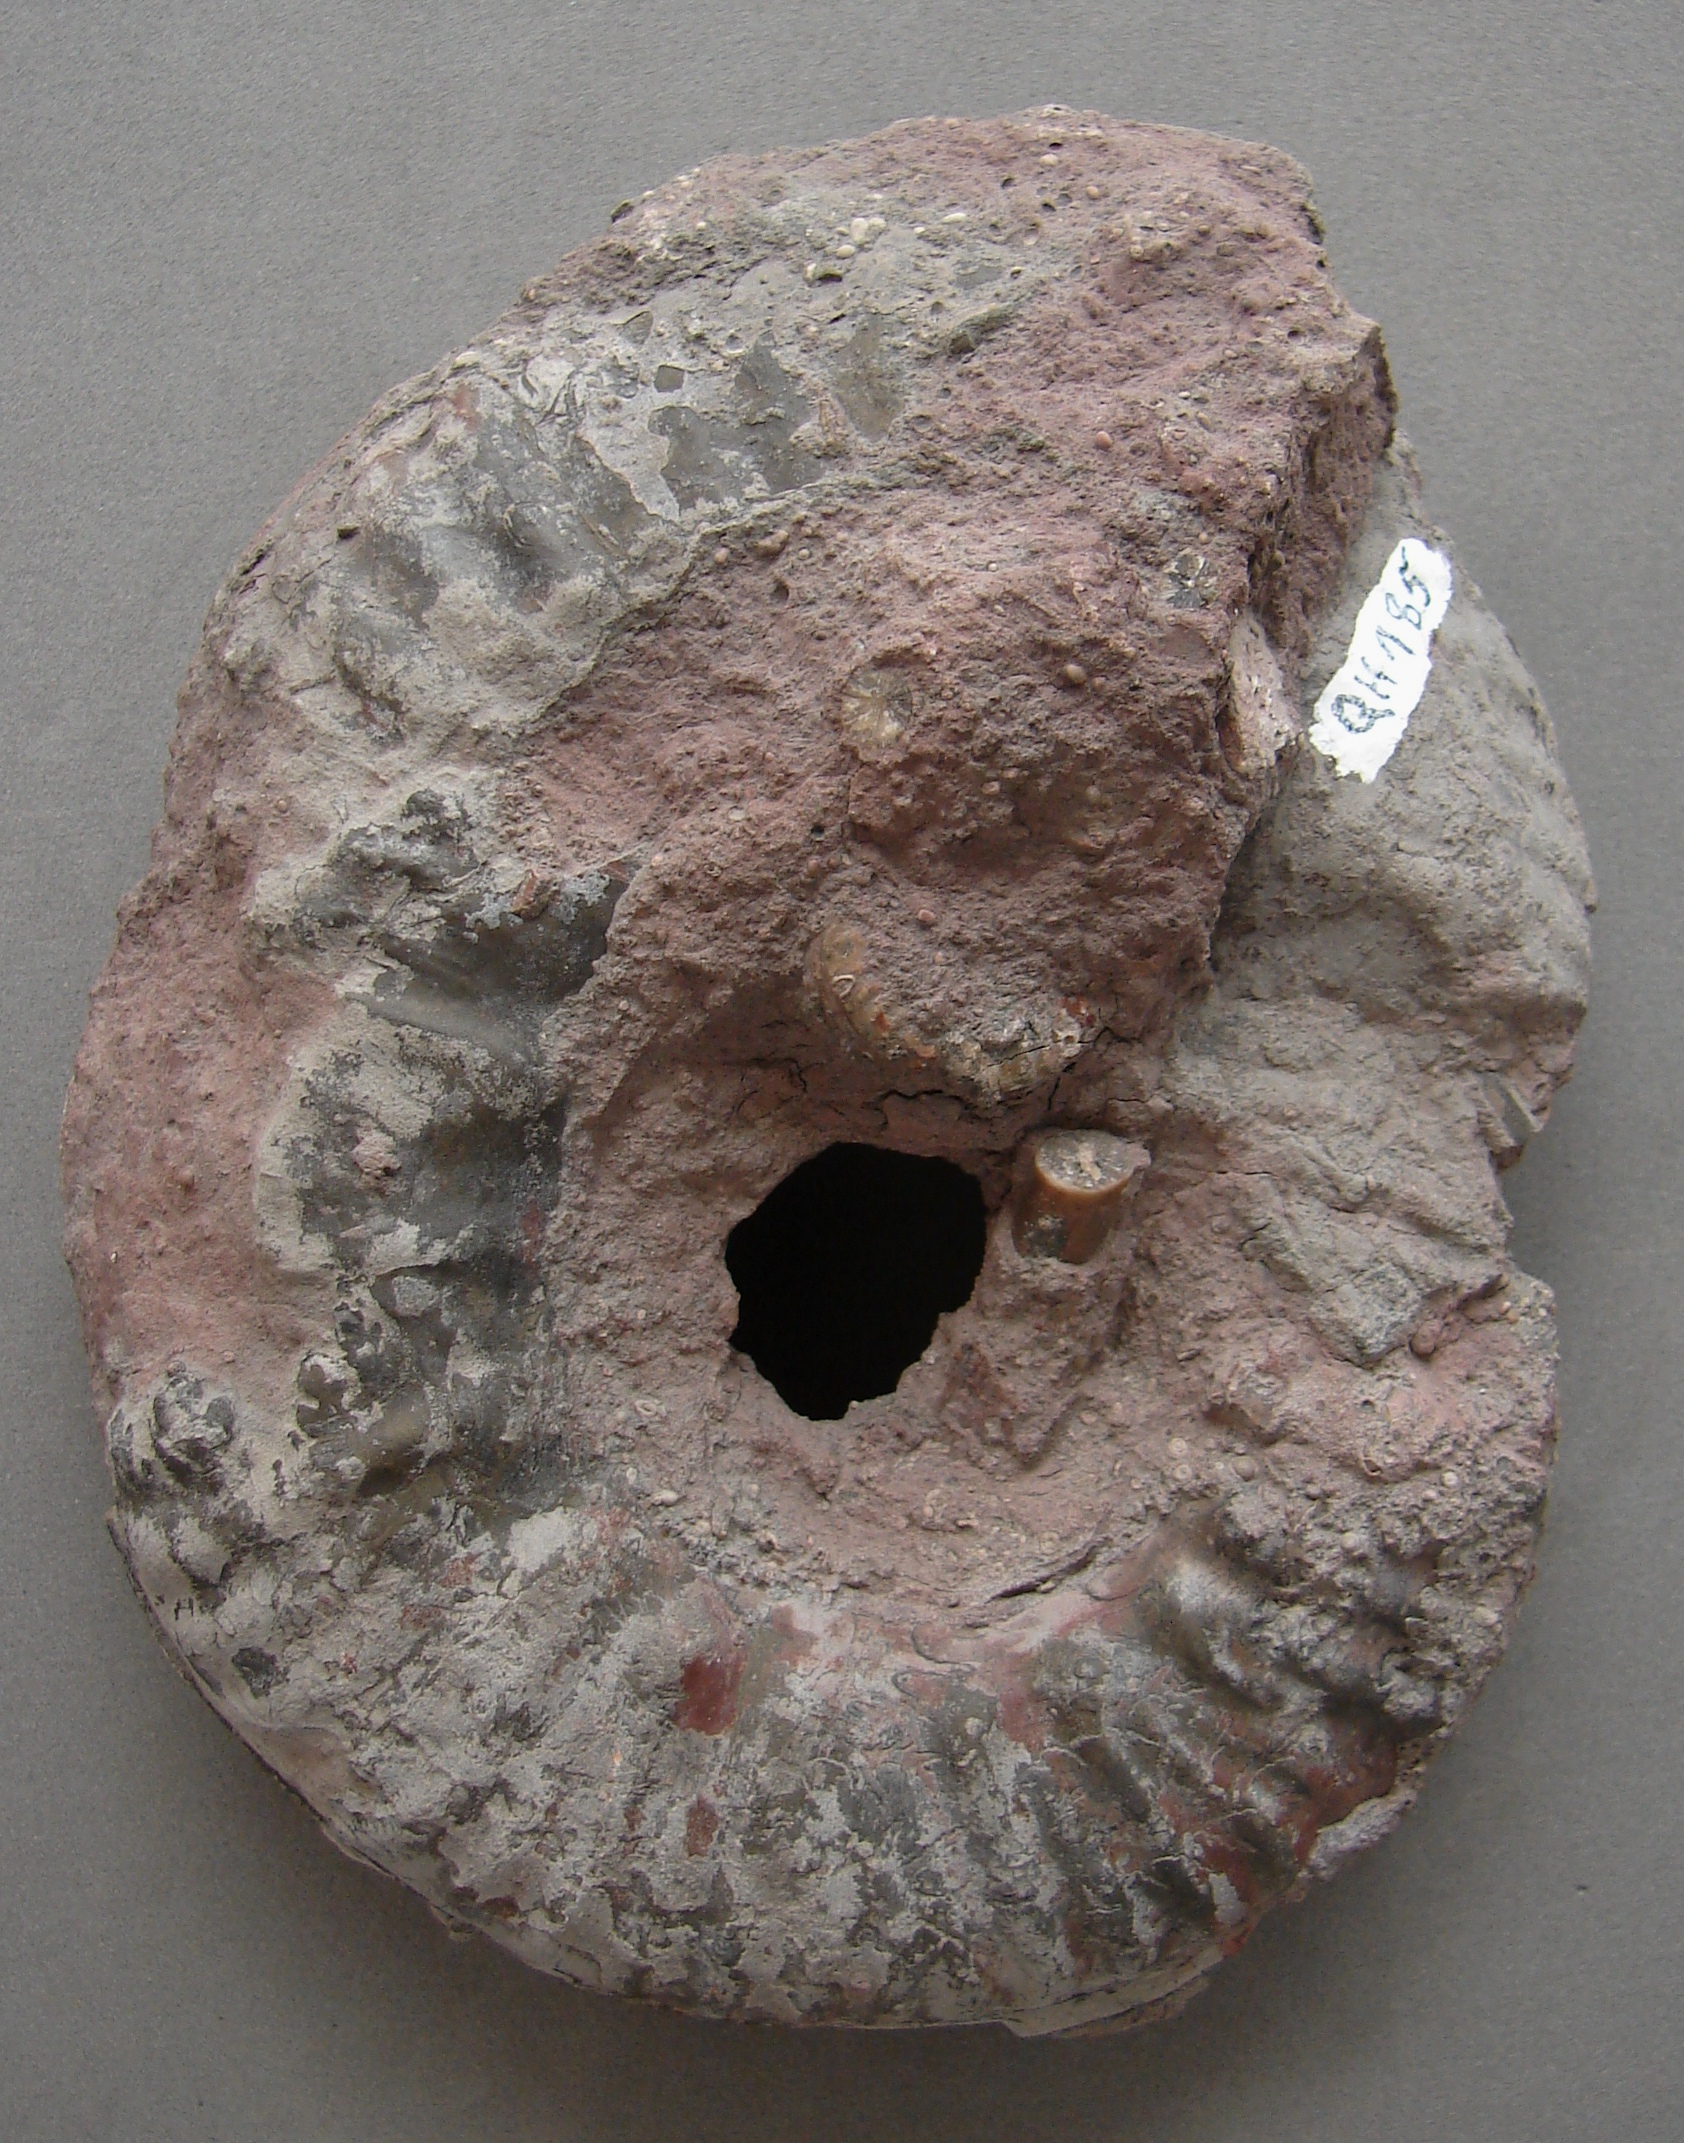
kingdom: Animalia
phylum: Mollusca
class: Cephalopoda
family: Phymatoceratidae
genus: Phymatoceras
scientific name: Phymatoceras robustum
